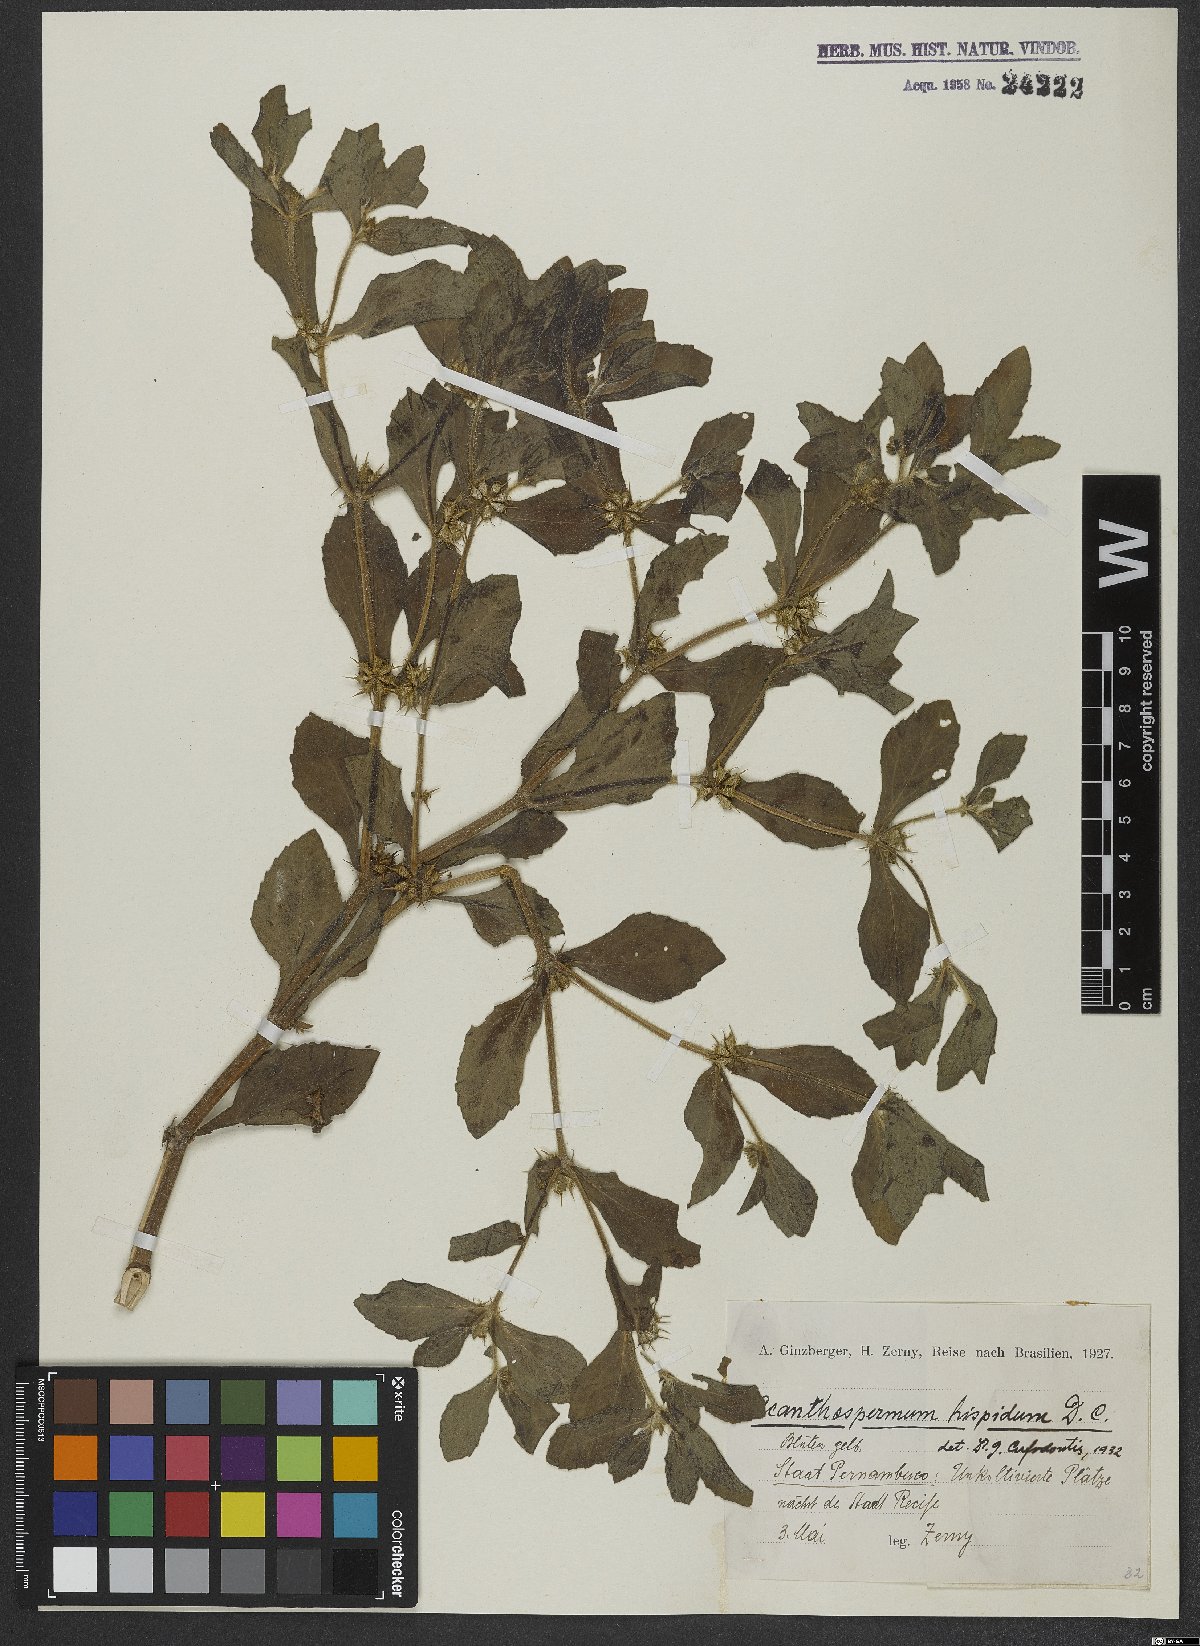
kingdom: Plantae
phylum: Tracheophyta
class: Magnoliopsida
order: Asterales
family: Asteraceae
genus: Acanthospermum
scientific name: Acanthospermum hispidum
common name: Hispid starbur
